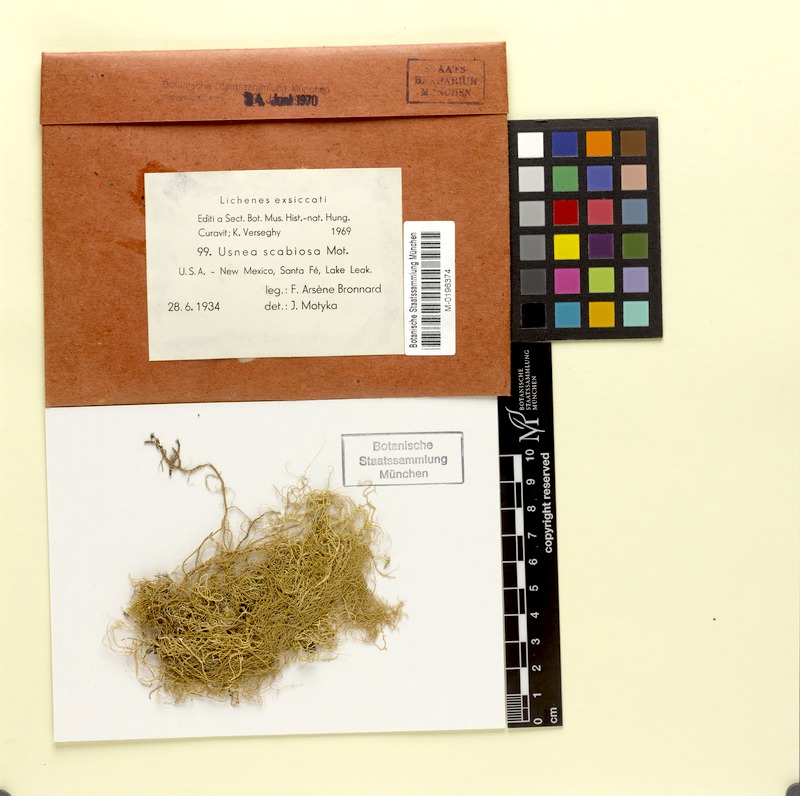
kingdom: Fungi
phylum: Ascomycota
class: Lecanoromycetes
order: Lecanorales
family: Parmeliaceae
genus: Usnea
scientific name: Usnea scabiosa
